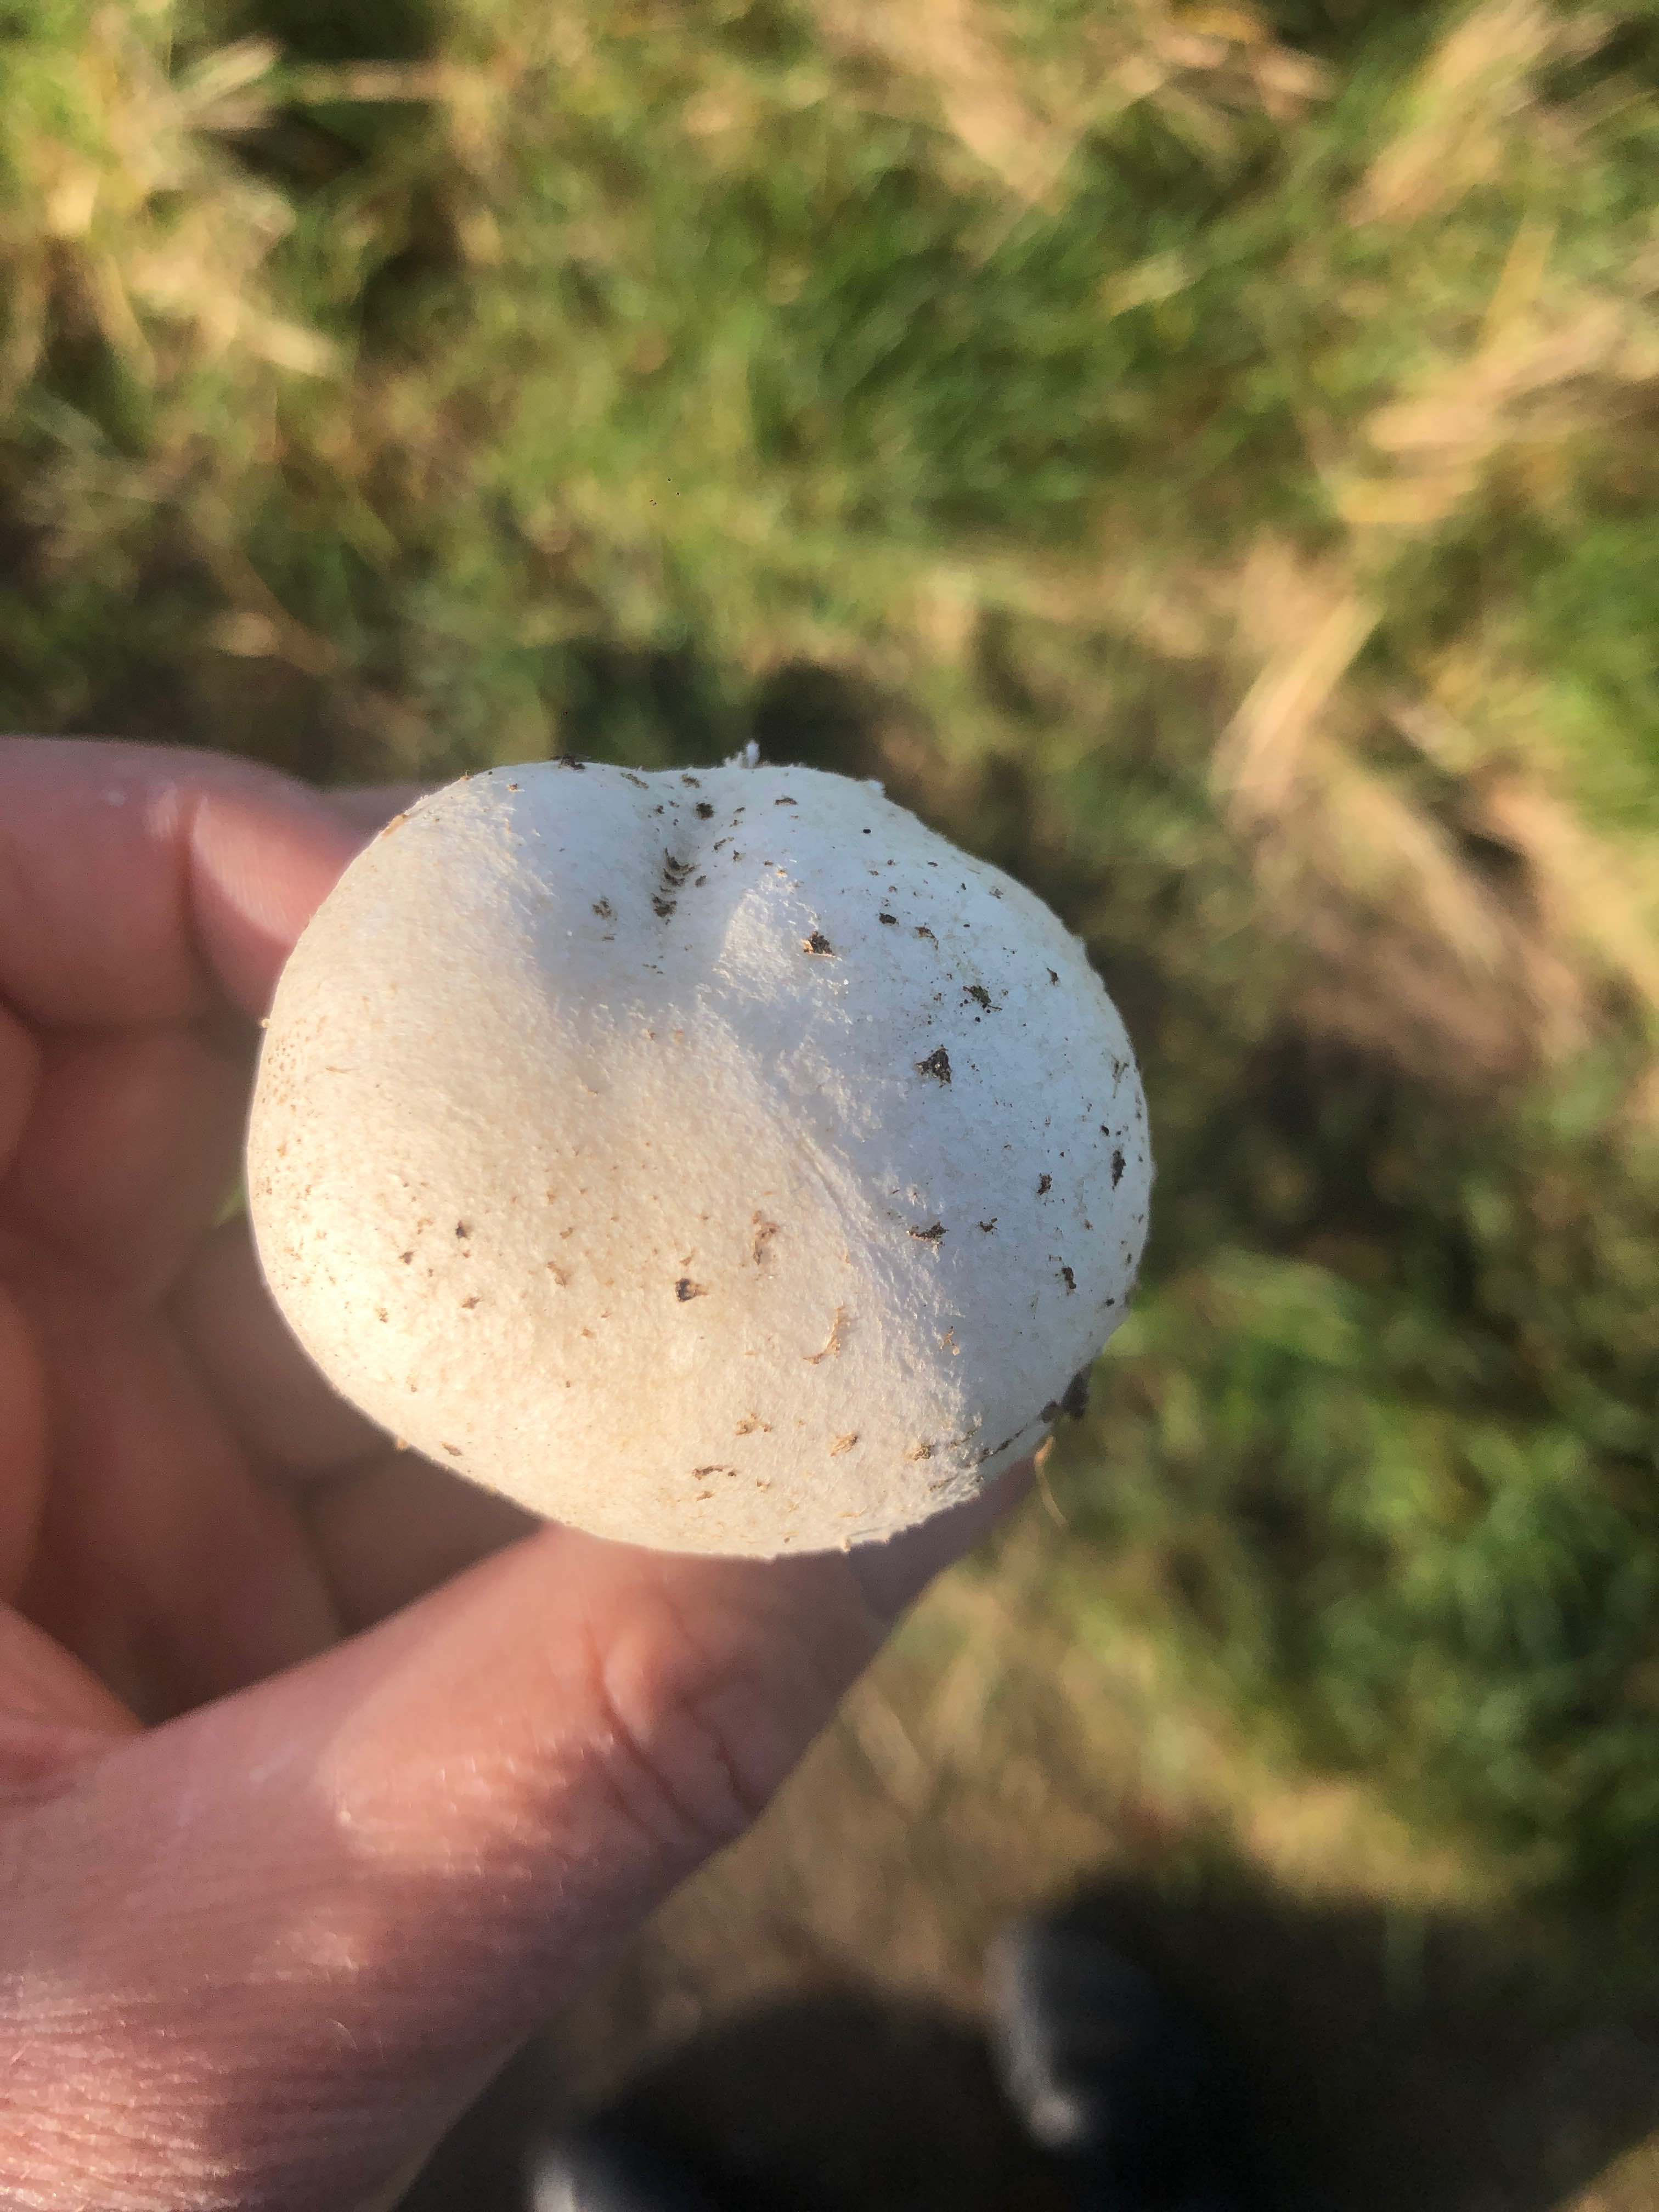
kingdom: Fungi
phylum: Basidiomycota
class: Agaricomycetes
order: Agaricales
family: Agaricaceae
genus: Agaricus
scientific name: Agaricus arvensis
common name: ager-champignon
